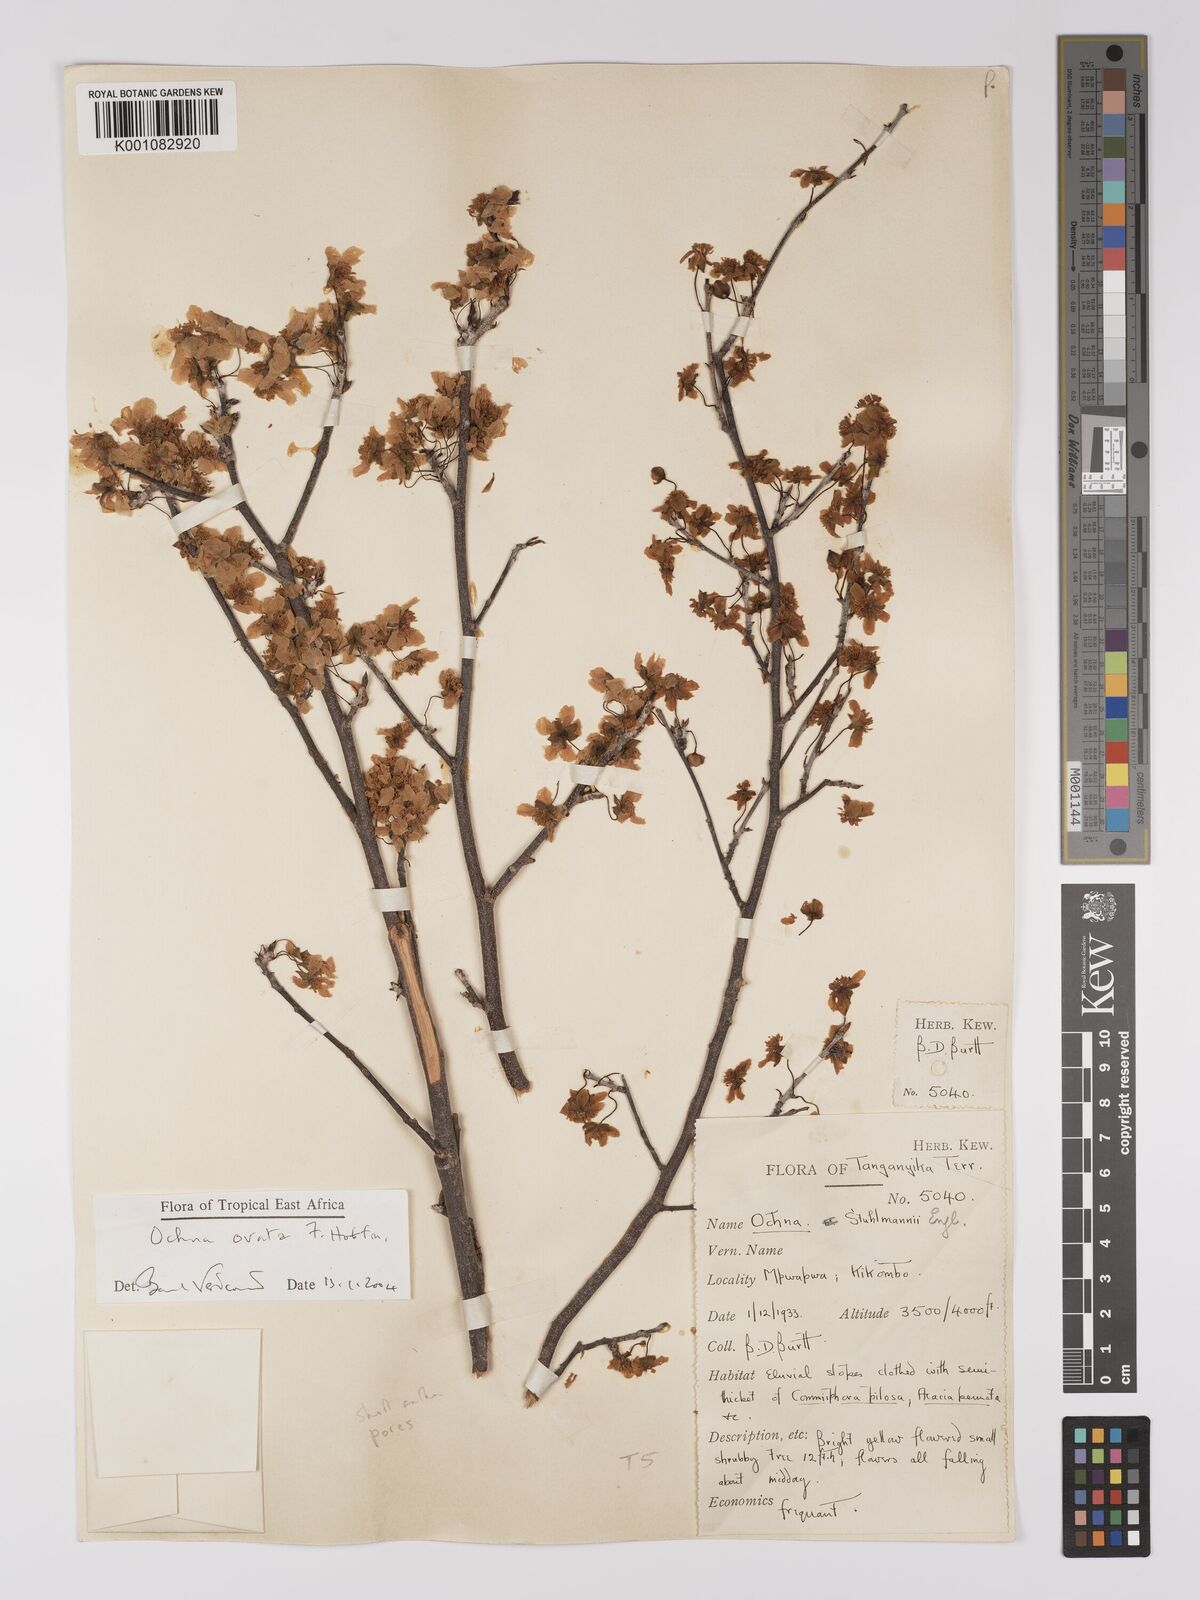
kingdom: Plantae
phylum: Tracheophyta
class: Magnoliopsida
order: Malpighiales
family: Ochnaceae
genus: Ochna
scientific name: Ochna ovata
